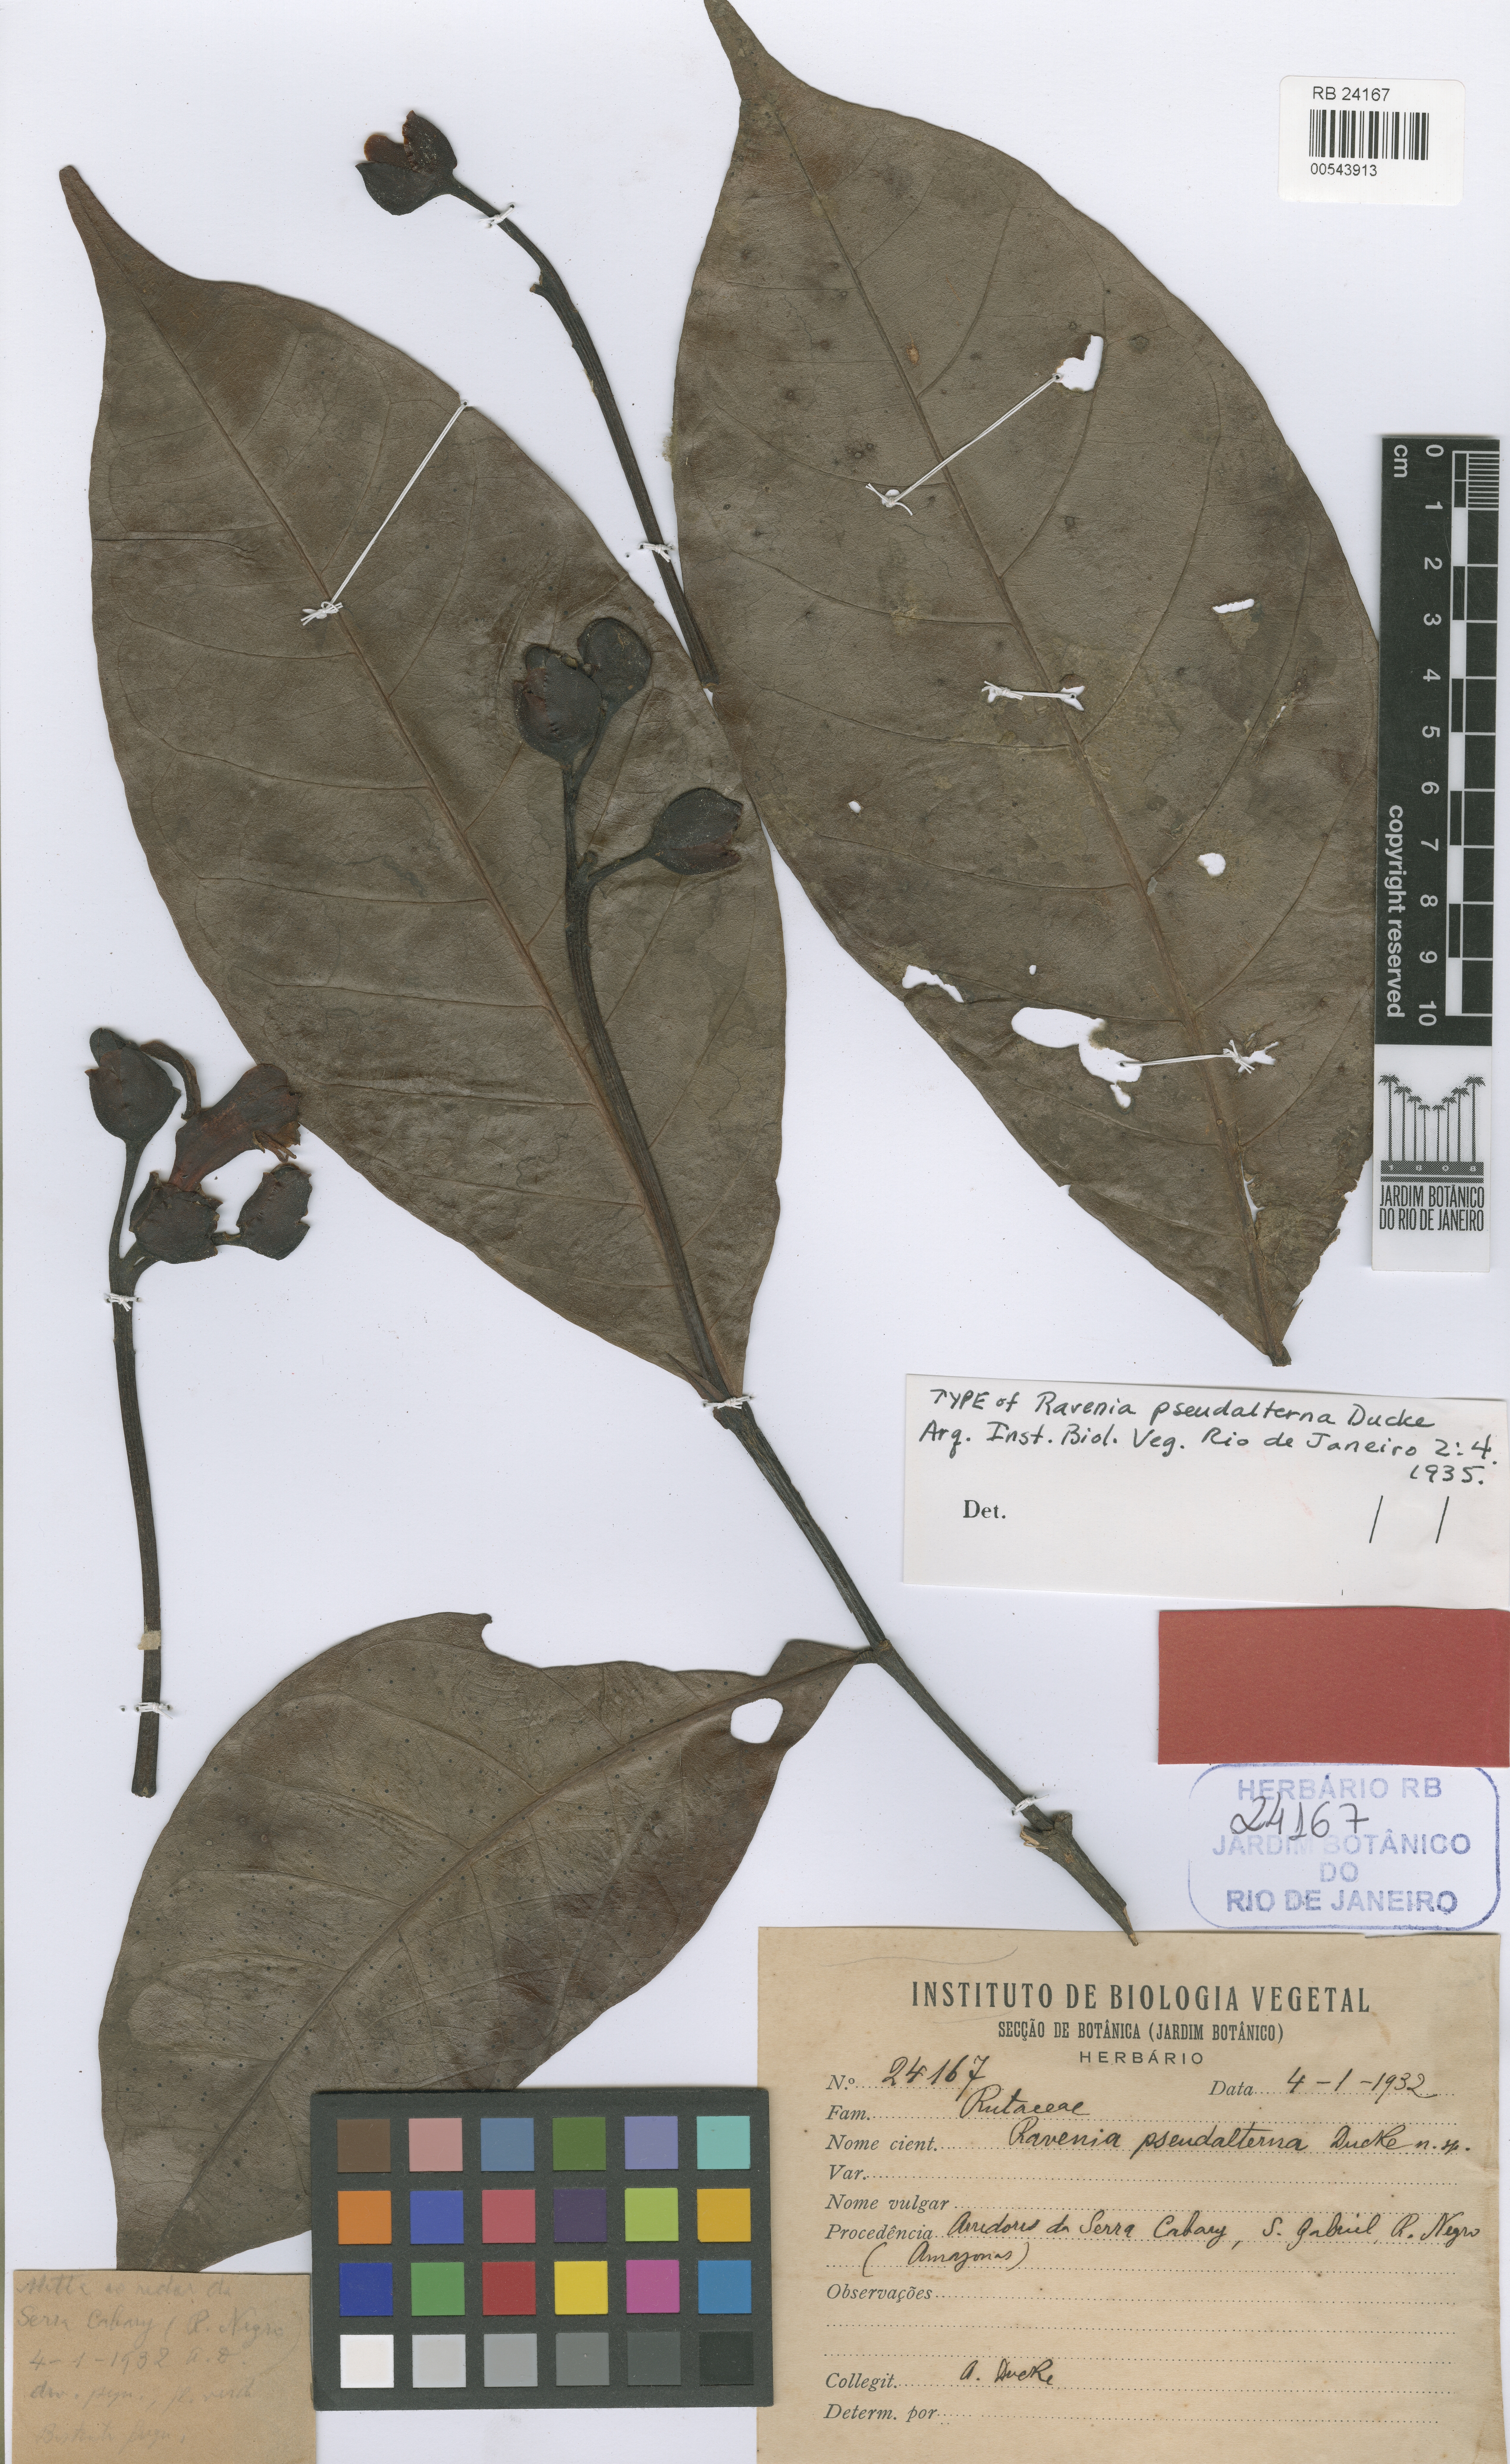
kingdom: Plantae
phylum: Tracheophyta
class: Magnoliopsida
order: Sapindales
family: Rutaceae
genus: Ravenia
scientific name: Ravenia pseudalterna
